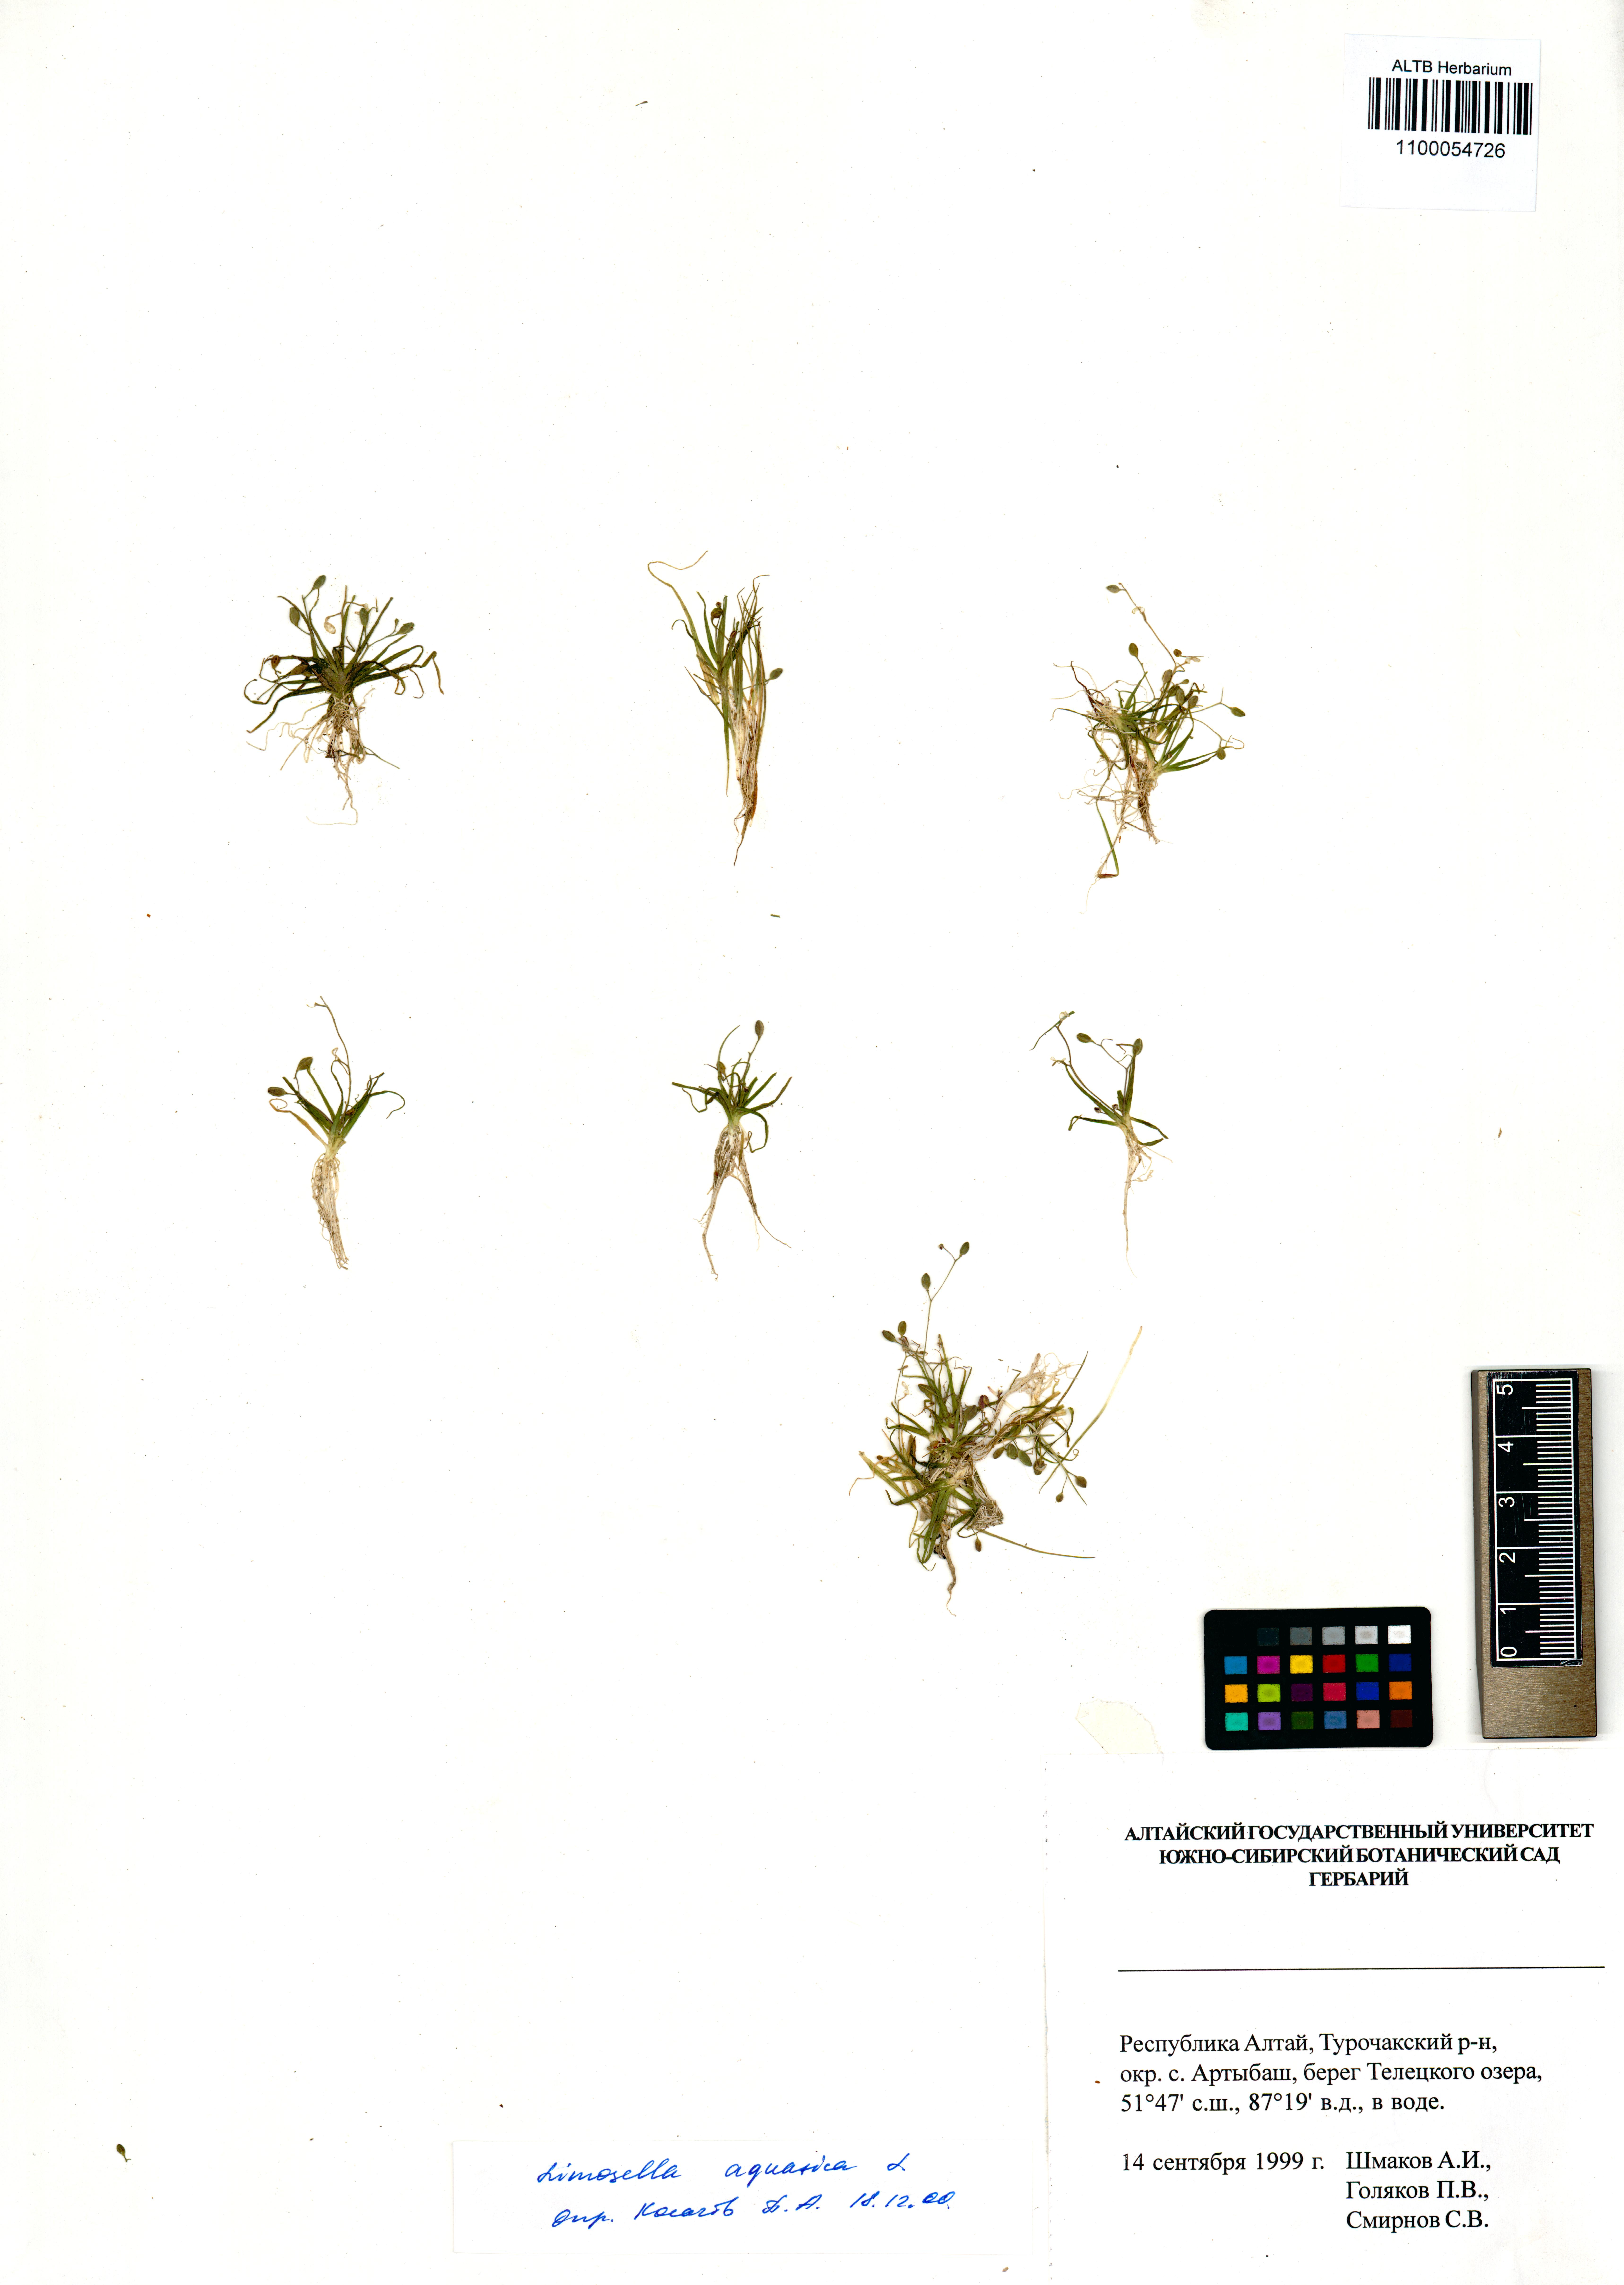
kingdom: Plantae
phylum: Tracheophyta
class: Magnoliopsida
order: Lamiales
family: Scrophulariaceae
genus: Limosella
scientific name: Limosella aquatica
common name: Mudwort
